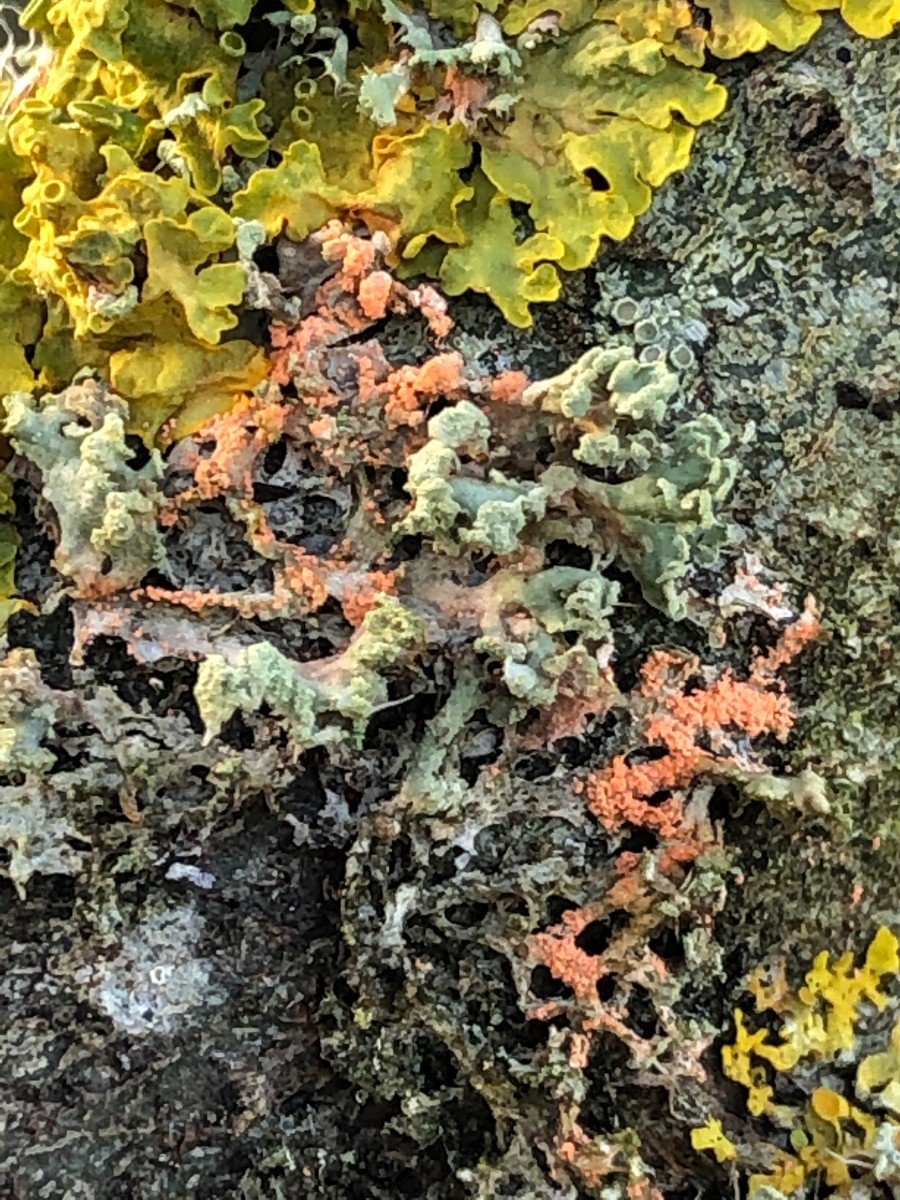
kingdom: Fungi
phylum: Basidiomycota
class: Agaricomycetes
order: Corticiales
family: Corticiaceae
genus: Erythricium
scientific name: Erythricium aurantiacum
